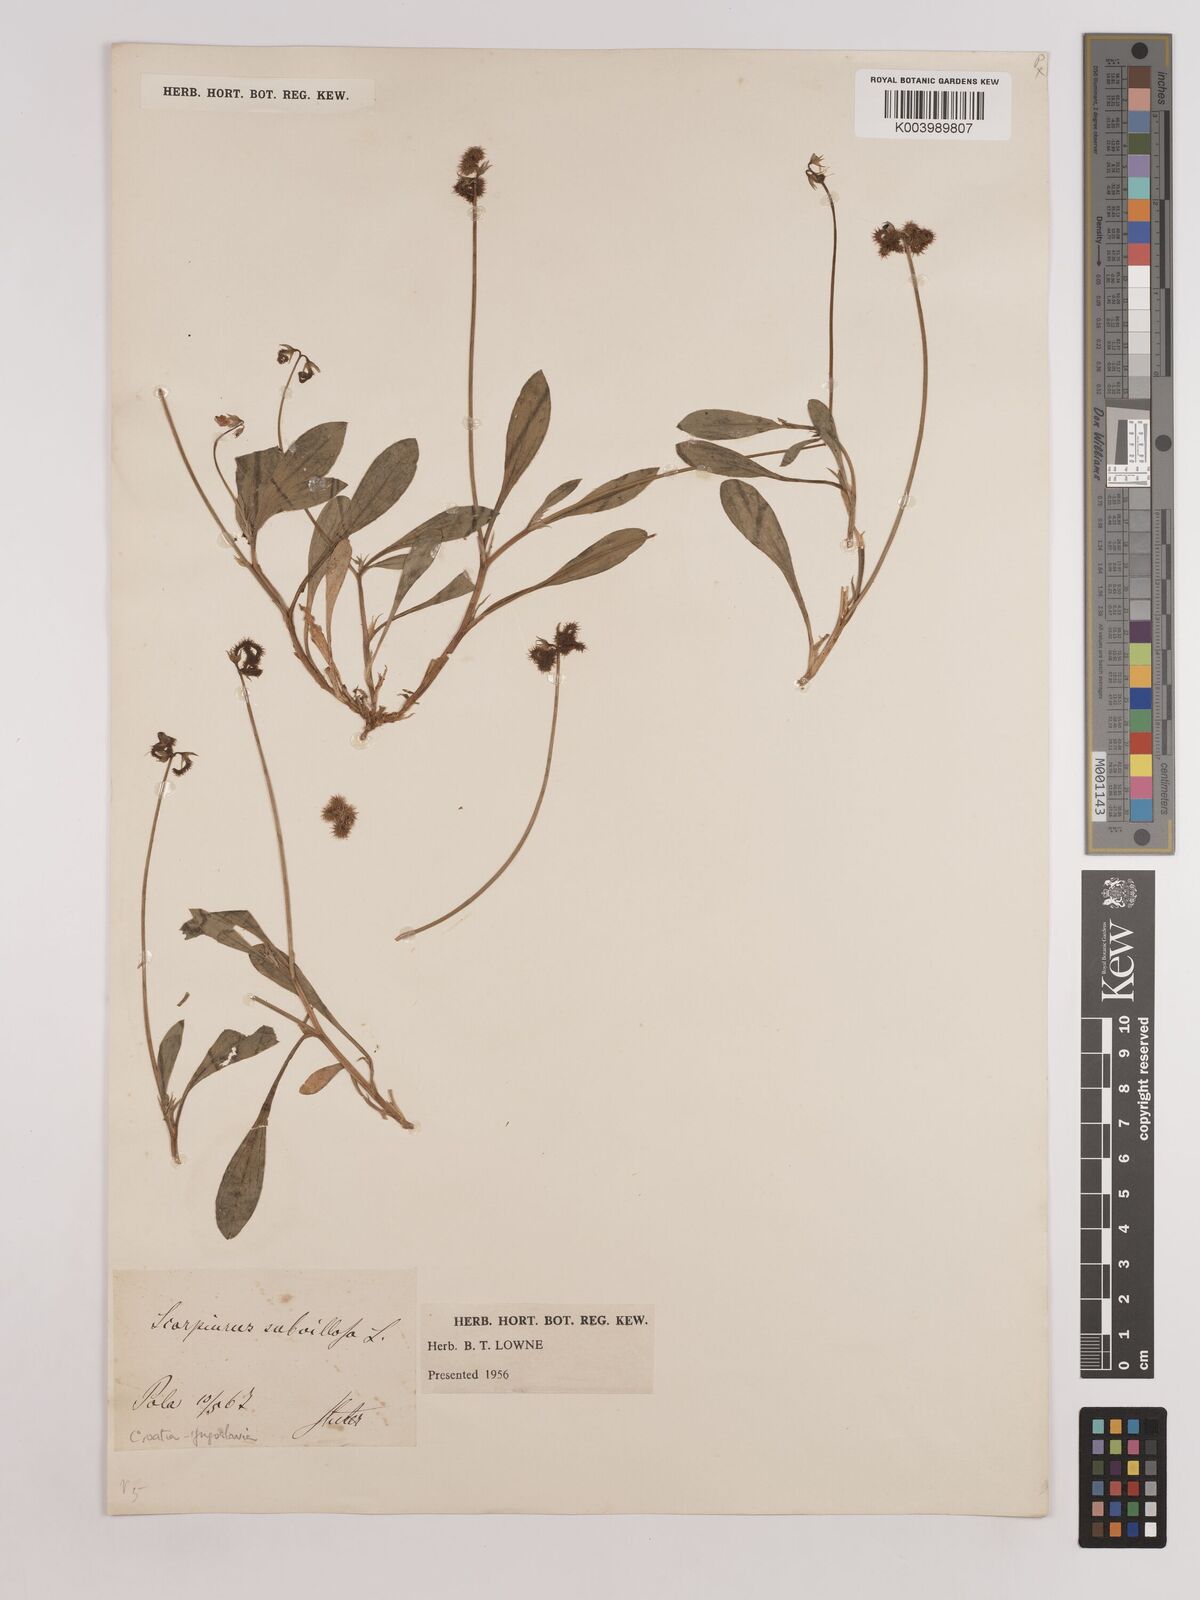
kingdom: Plantae
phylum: Tracheophyta
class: Magnoliopsida
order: Fabales
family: Fabaceae
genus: Scorpiurus
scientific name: Scorpiurus muricatus
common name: Caterpillar-plant
